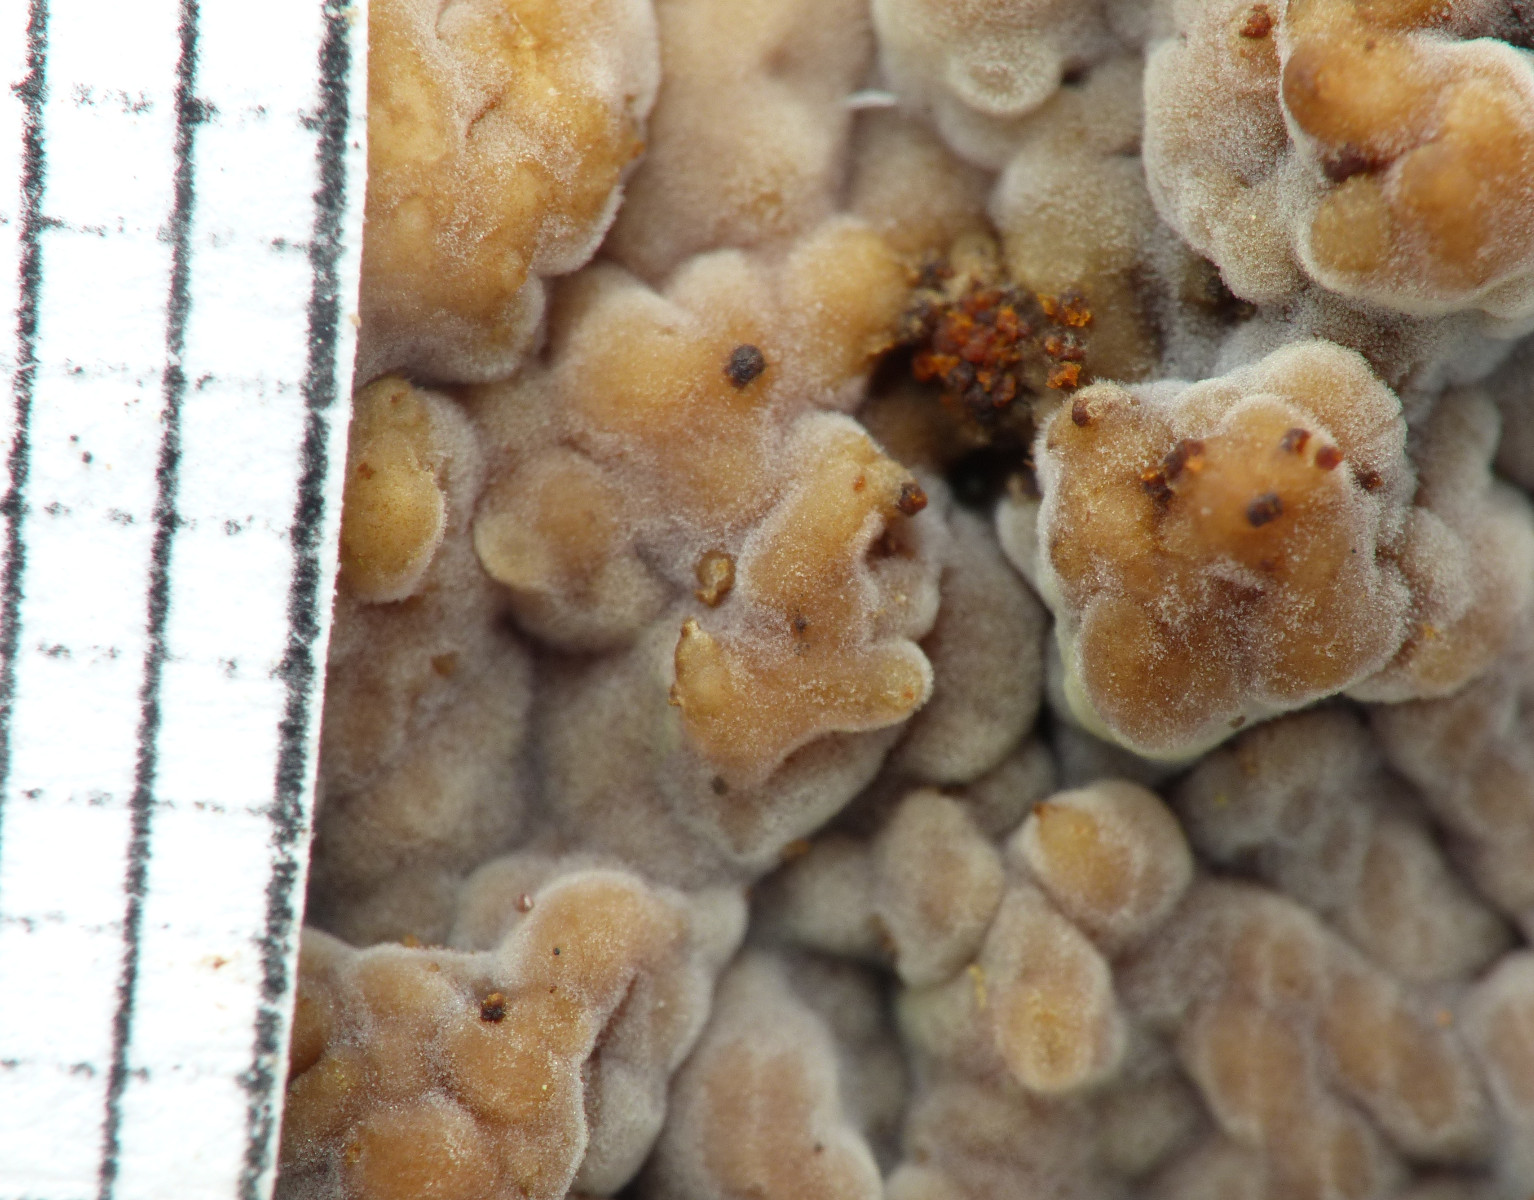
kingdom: Fungi
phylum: Basidiomycota
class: Agaricomycetes
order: Boletales
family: Coniophoraceae
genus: Coniophora
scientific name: Coniophora
